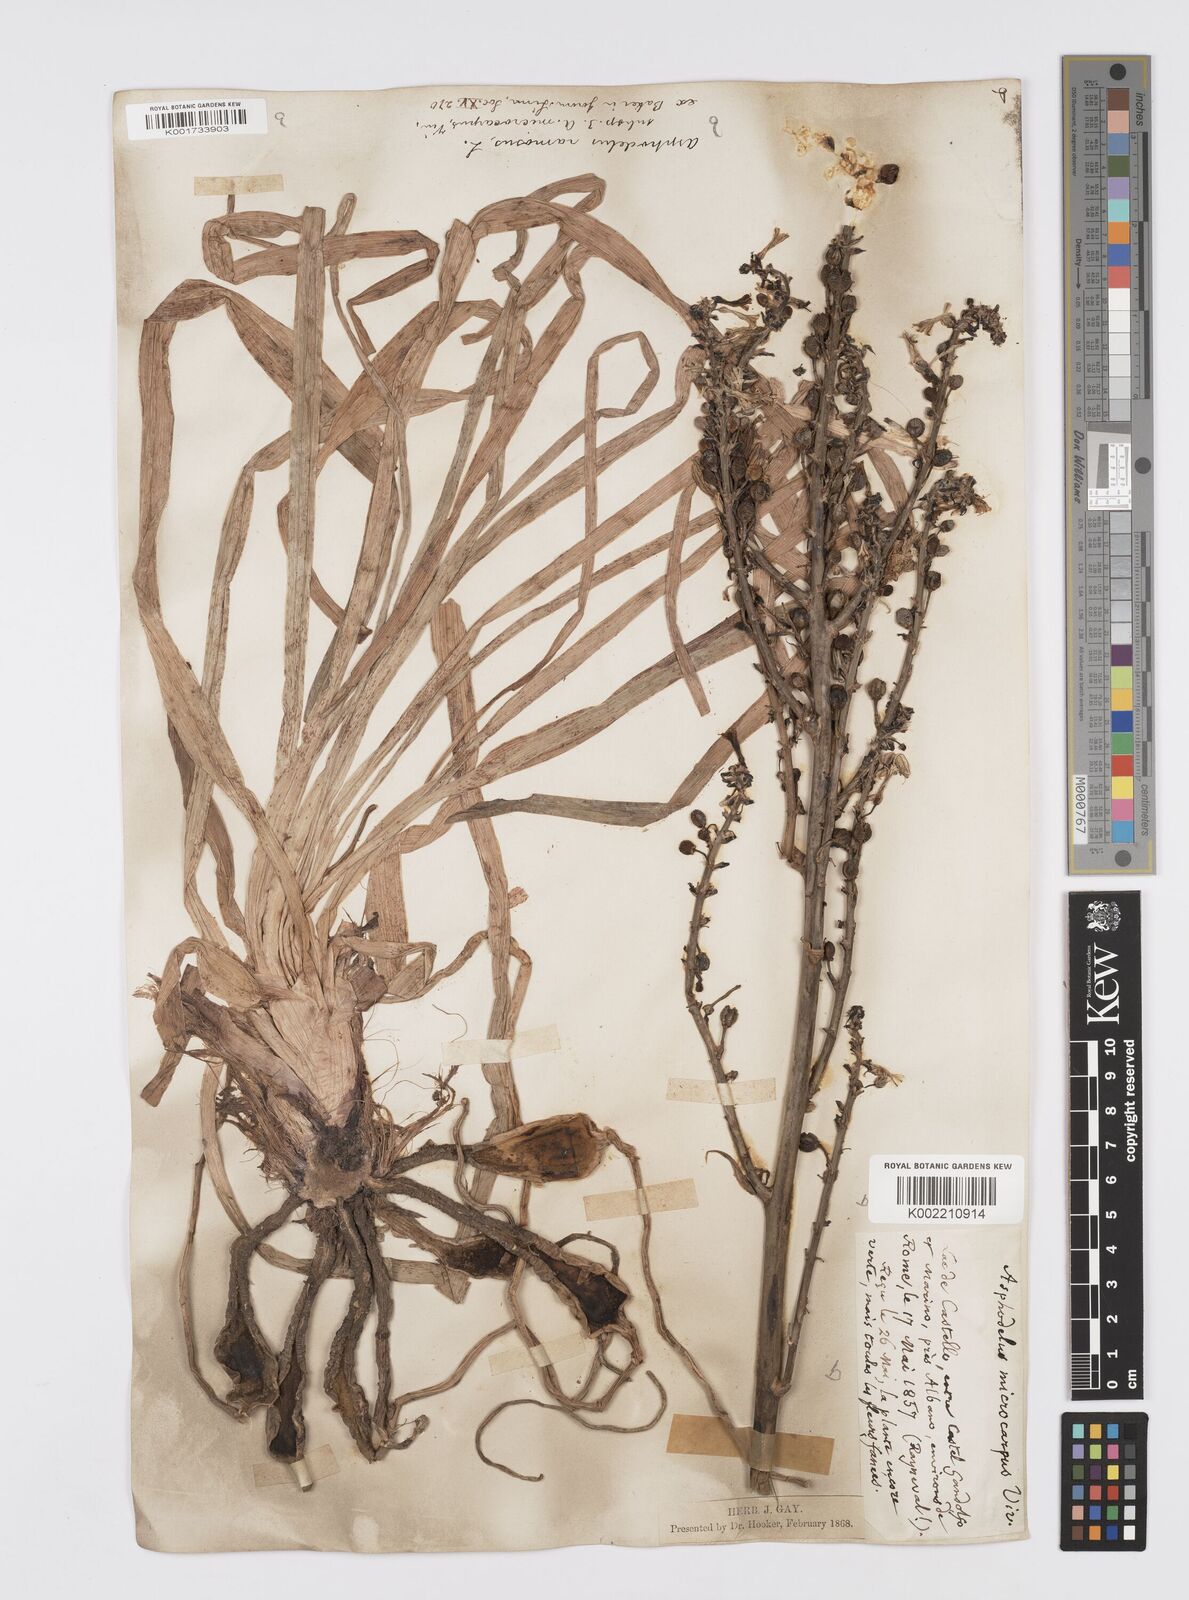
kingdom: Plantae
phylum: Tracheophyta
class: Liliopsida
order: Asparagales
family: Asphodelaceae
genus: Asphodelus
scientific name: Asphodelus ramosus
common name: Silverrod
